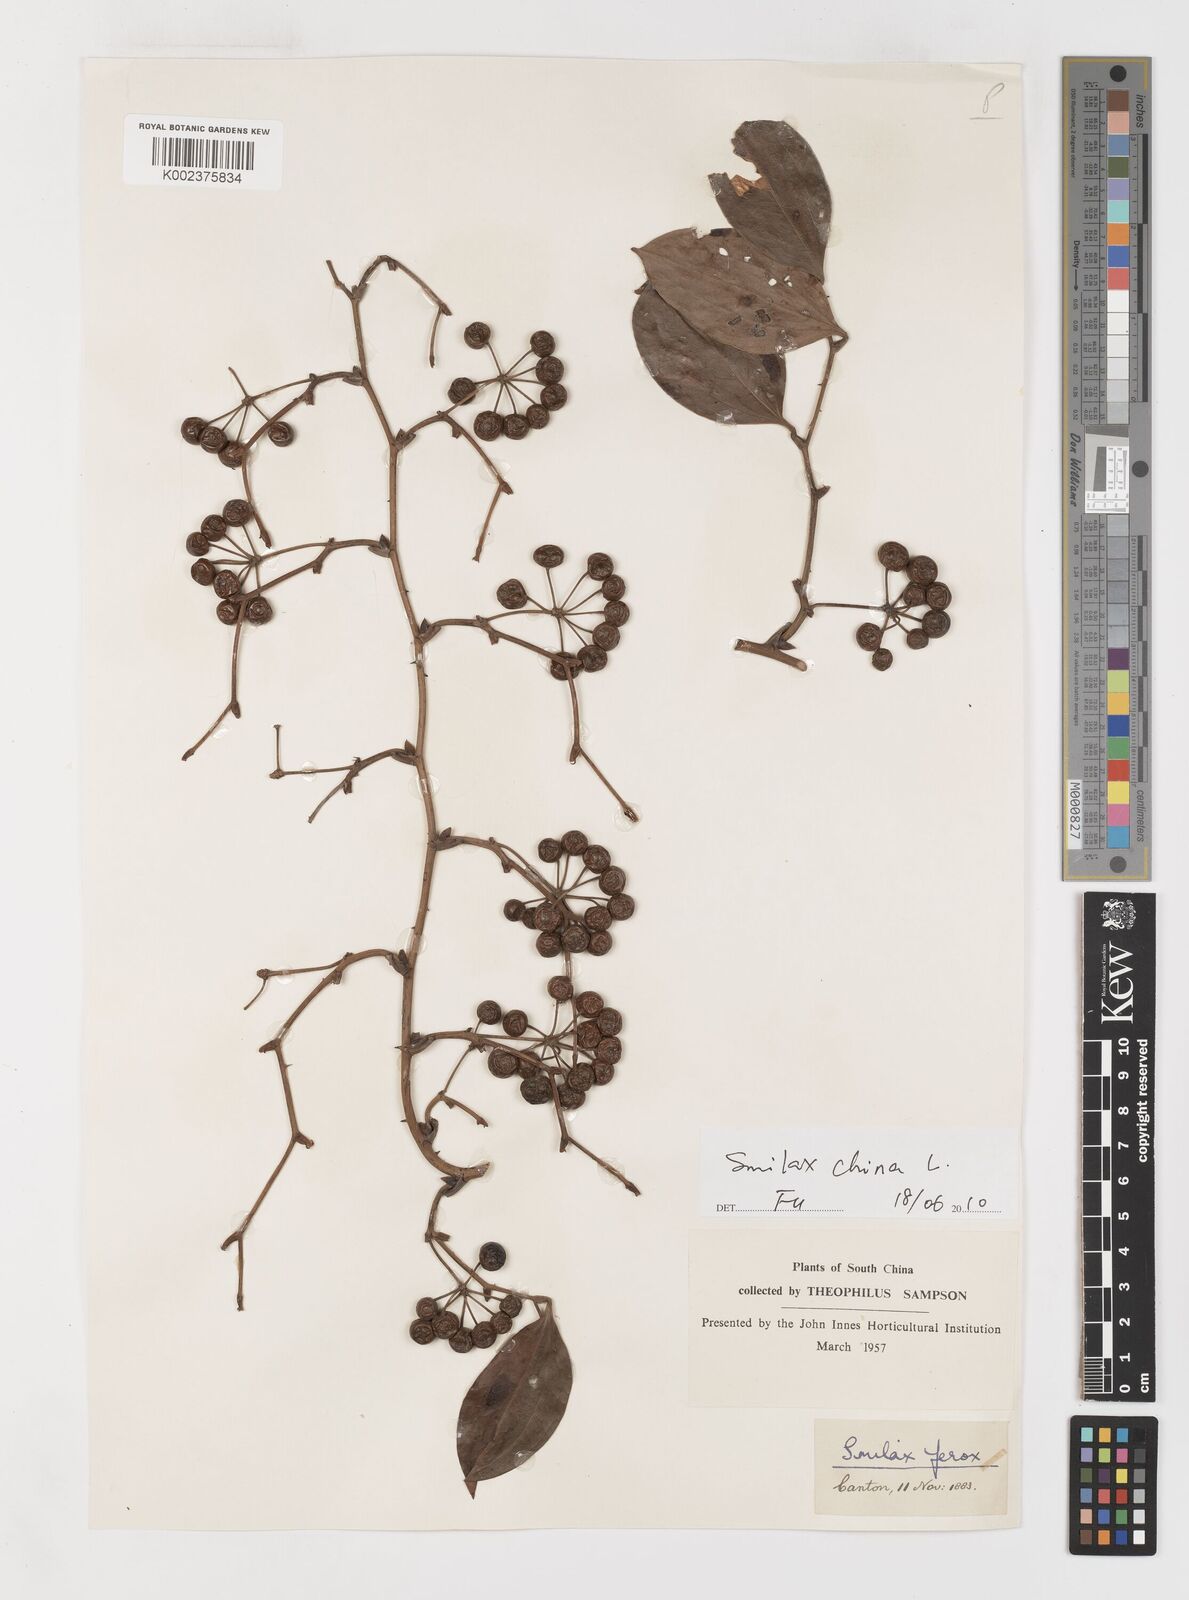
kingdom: Plantae
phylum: Tracheophyta
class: Liliopsida
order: Liliales
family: Smilacaceae
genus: Smilax
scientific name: Smilax china
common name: Chinaroot
